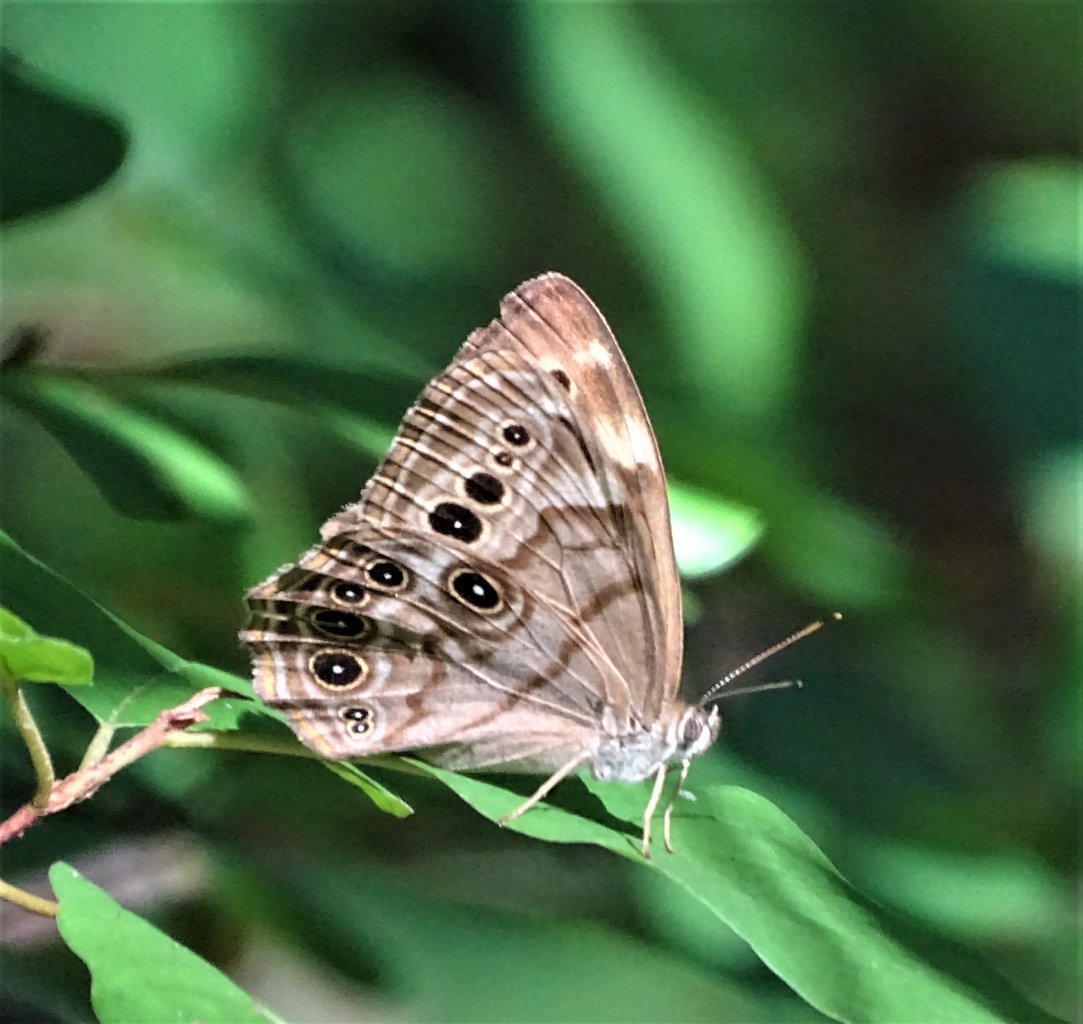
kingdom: Animalia
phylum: Arthropoda
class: Insecta
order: Lepidoptera
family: Nymphalidae
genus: Lethe
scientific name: Lethe anthedon
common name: Northern Pearly-Eye
